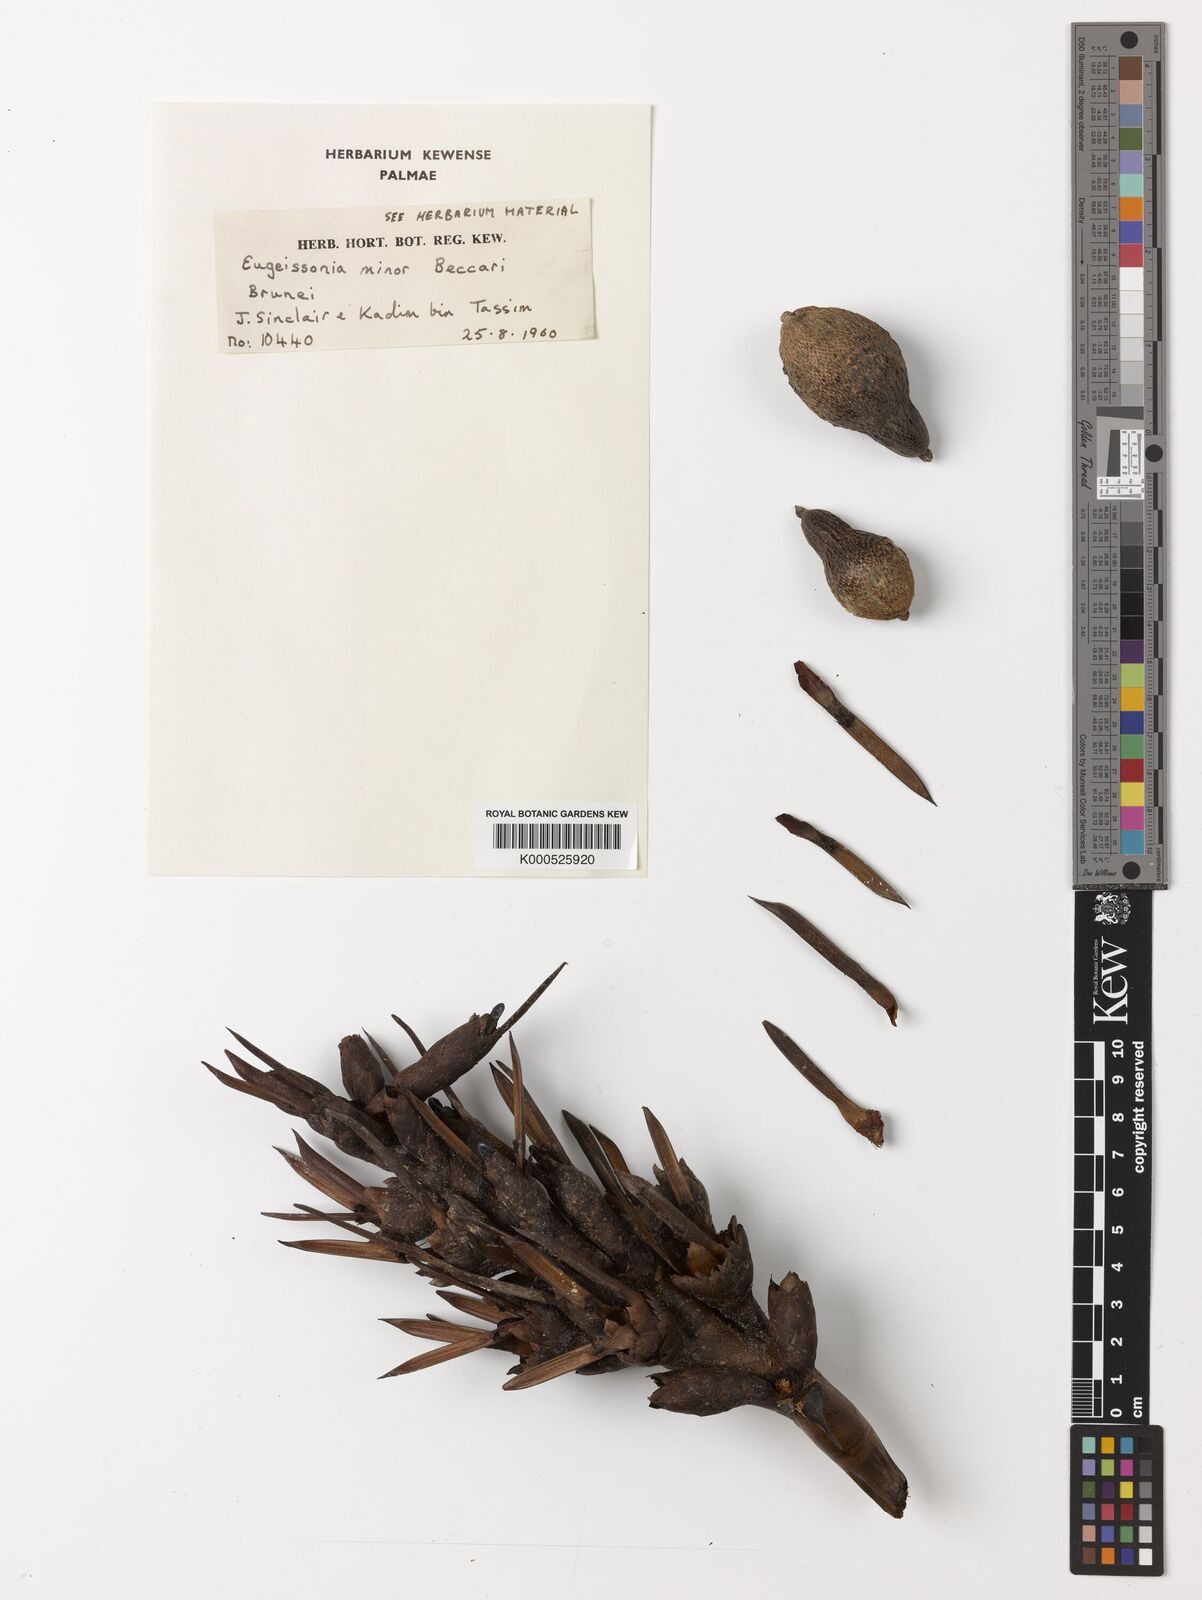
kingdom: Plantae
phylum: Tracheophyta
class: Liliopsida
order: Arecales
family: Arecaceae
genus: Eugeissona
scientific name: Eugeissona minor
